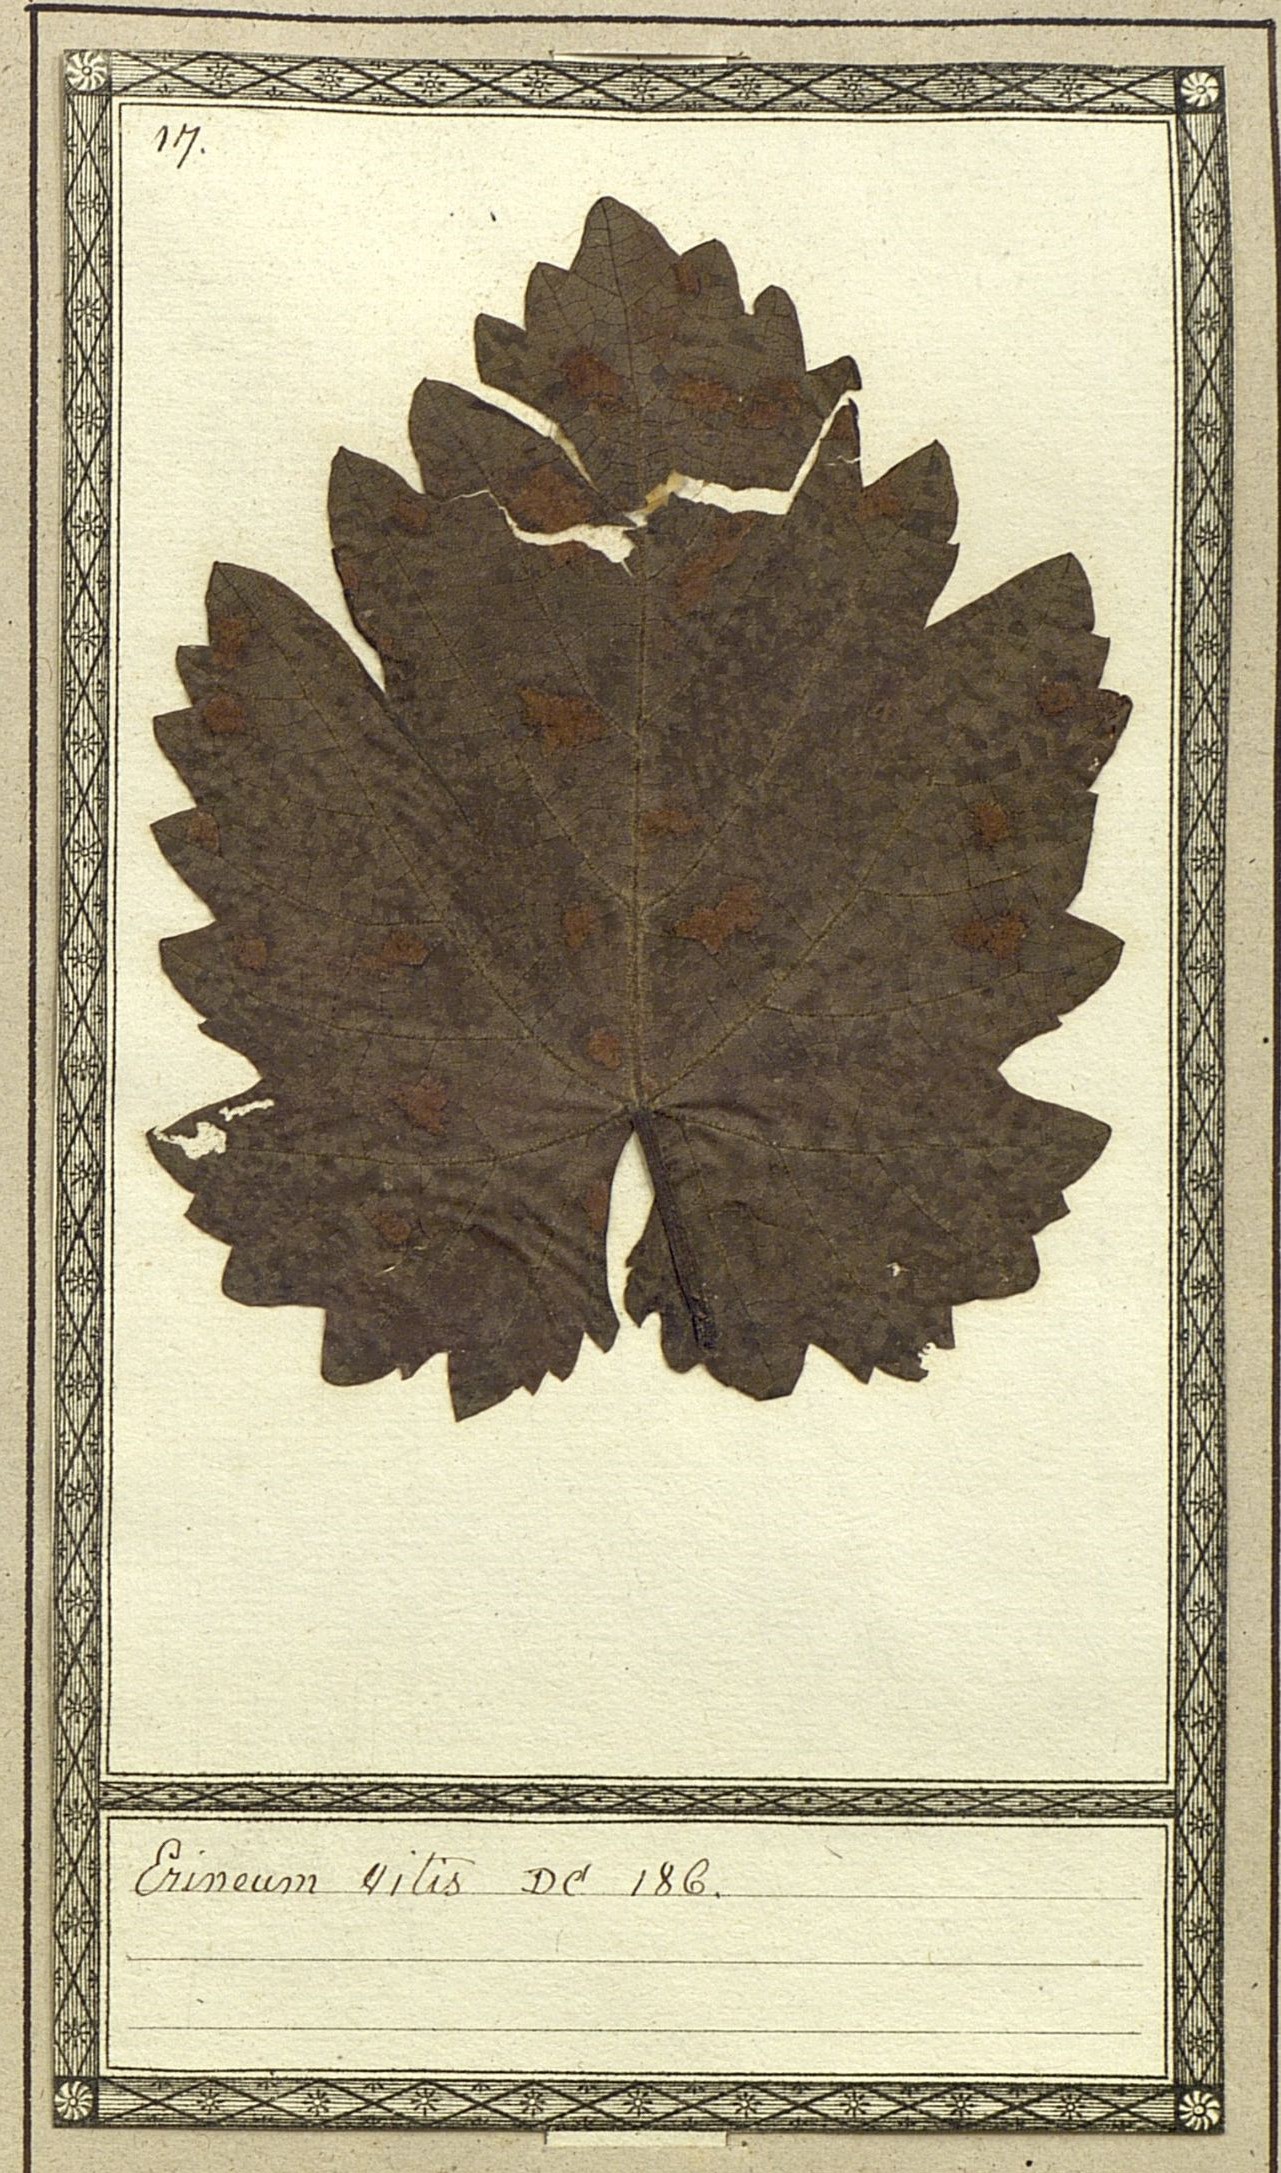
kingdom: Fungi
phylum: Basidiomycota
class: Pucciniomycetes
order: Pucciniales
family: Cronartiaceae
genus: Erineum
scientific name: Erineum
